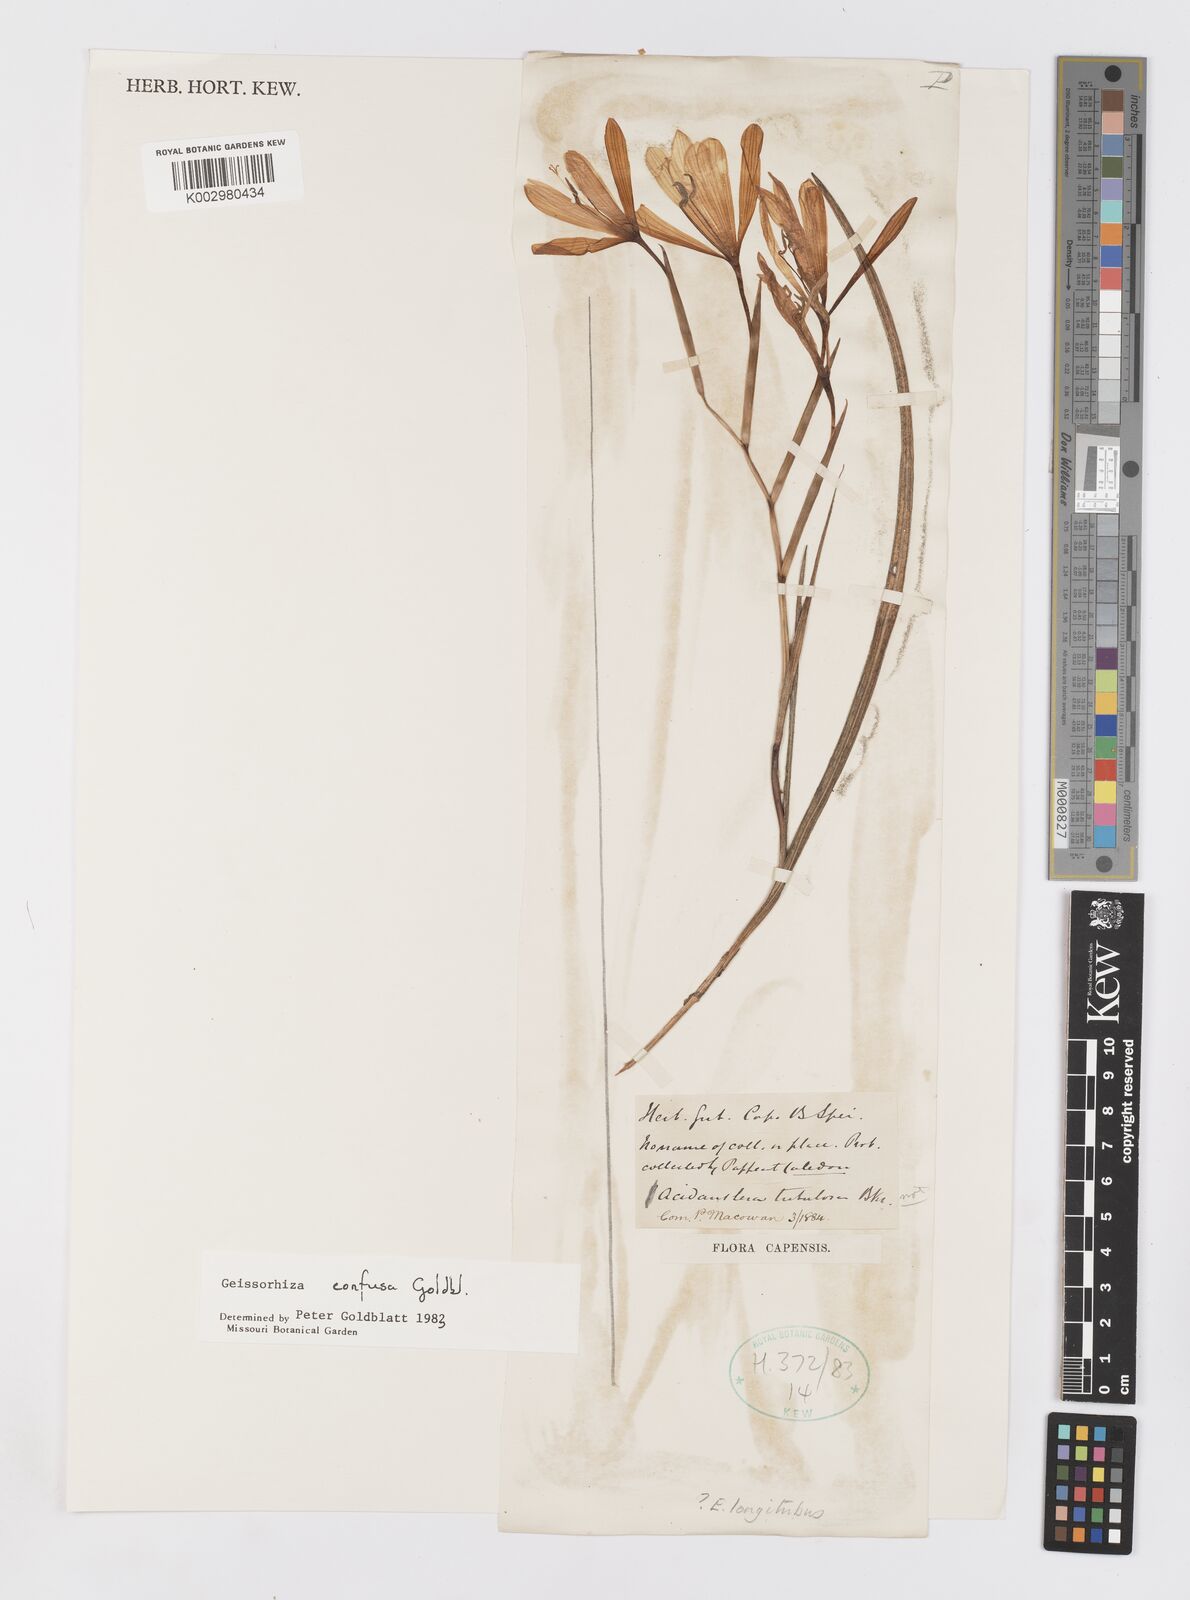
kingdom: Plantae
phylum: Tracheophyta
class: Liliopsida
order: Asparagales
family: Iridaceae
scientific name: Iridaceae
